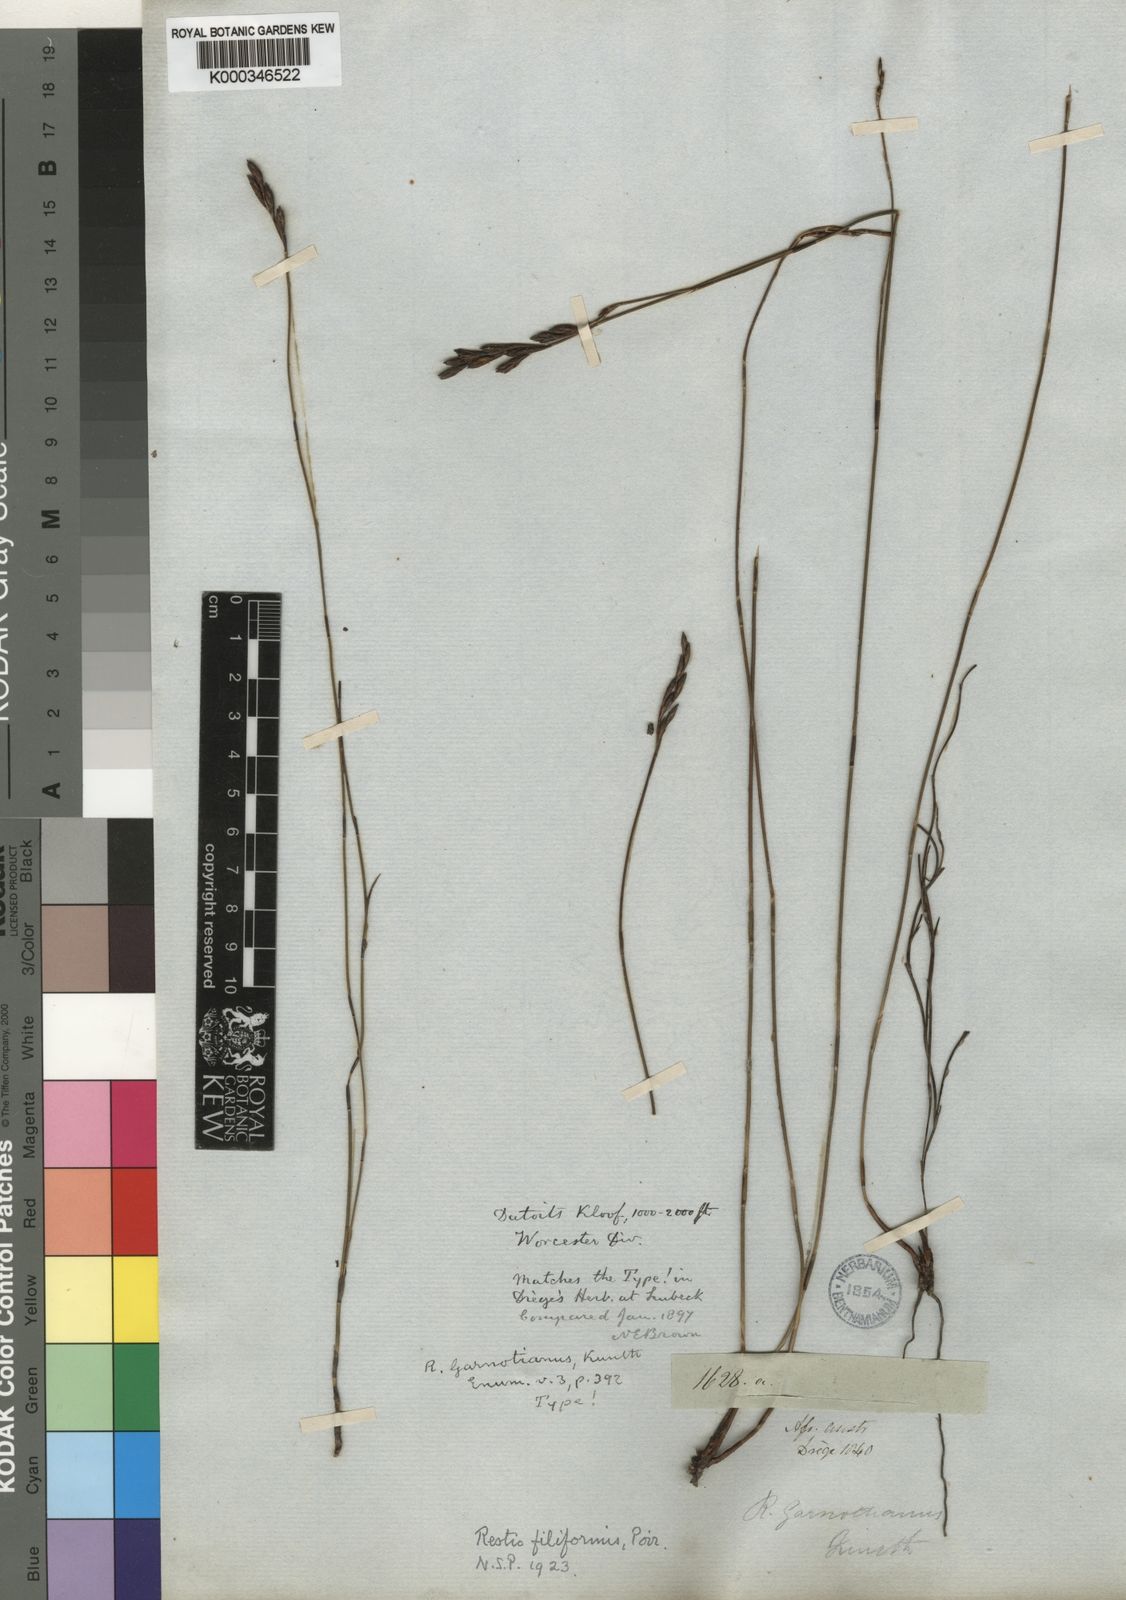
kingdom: Plantae
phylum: Tracheophyta
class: Liliopsida
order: Poales
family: Restionaceae
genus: Restio
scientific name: Restio filiformis
